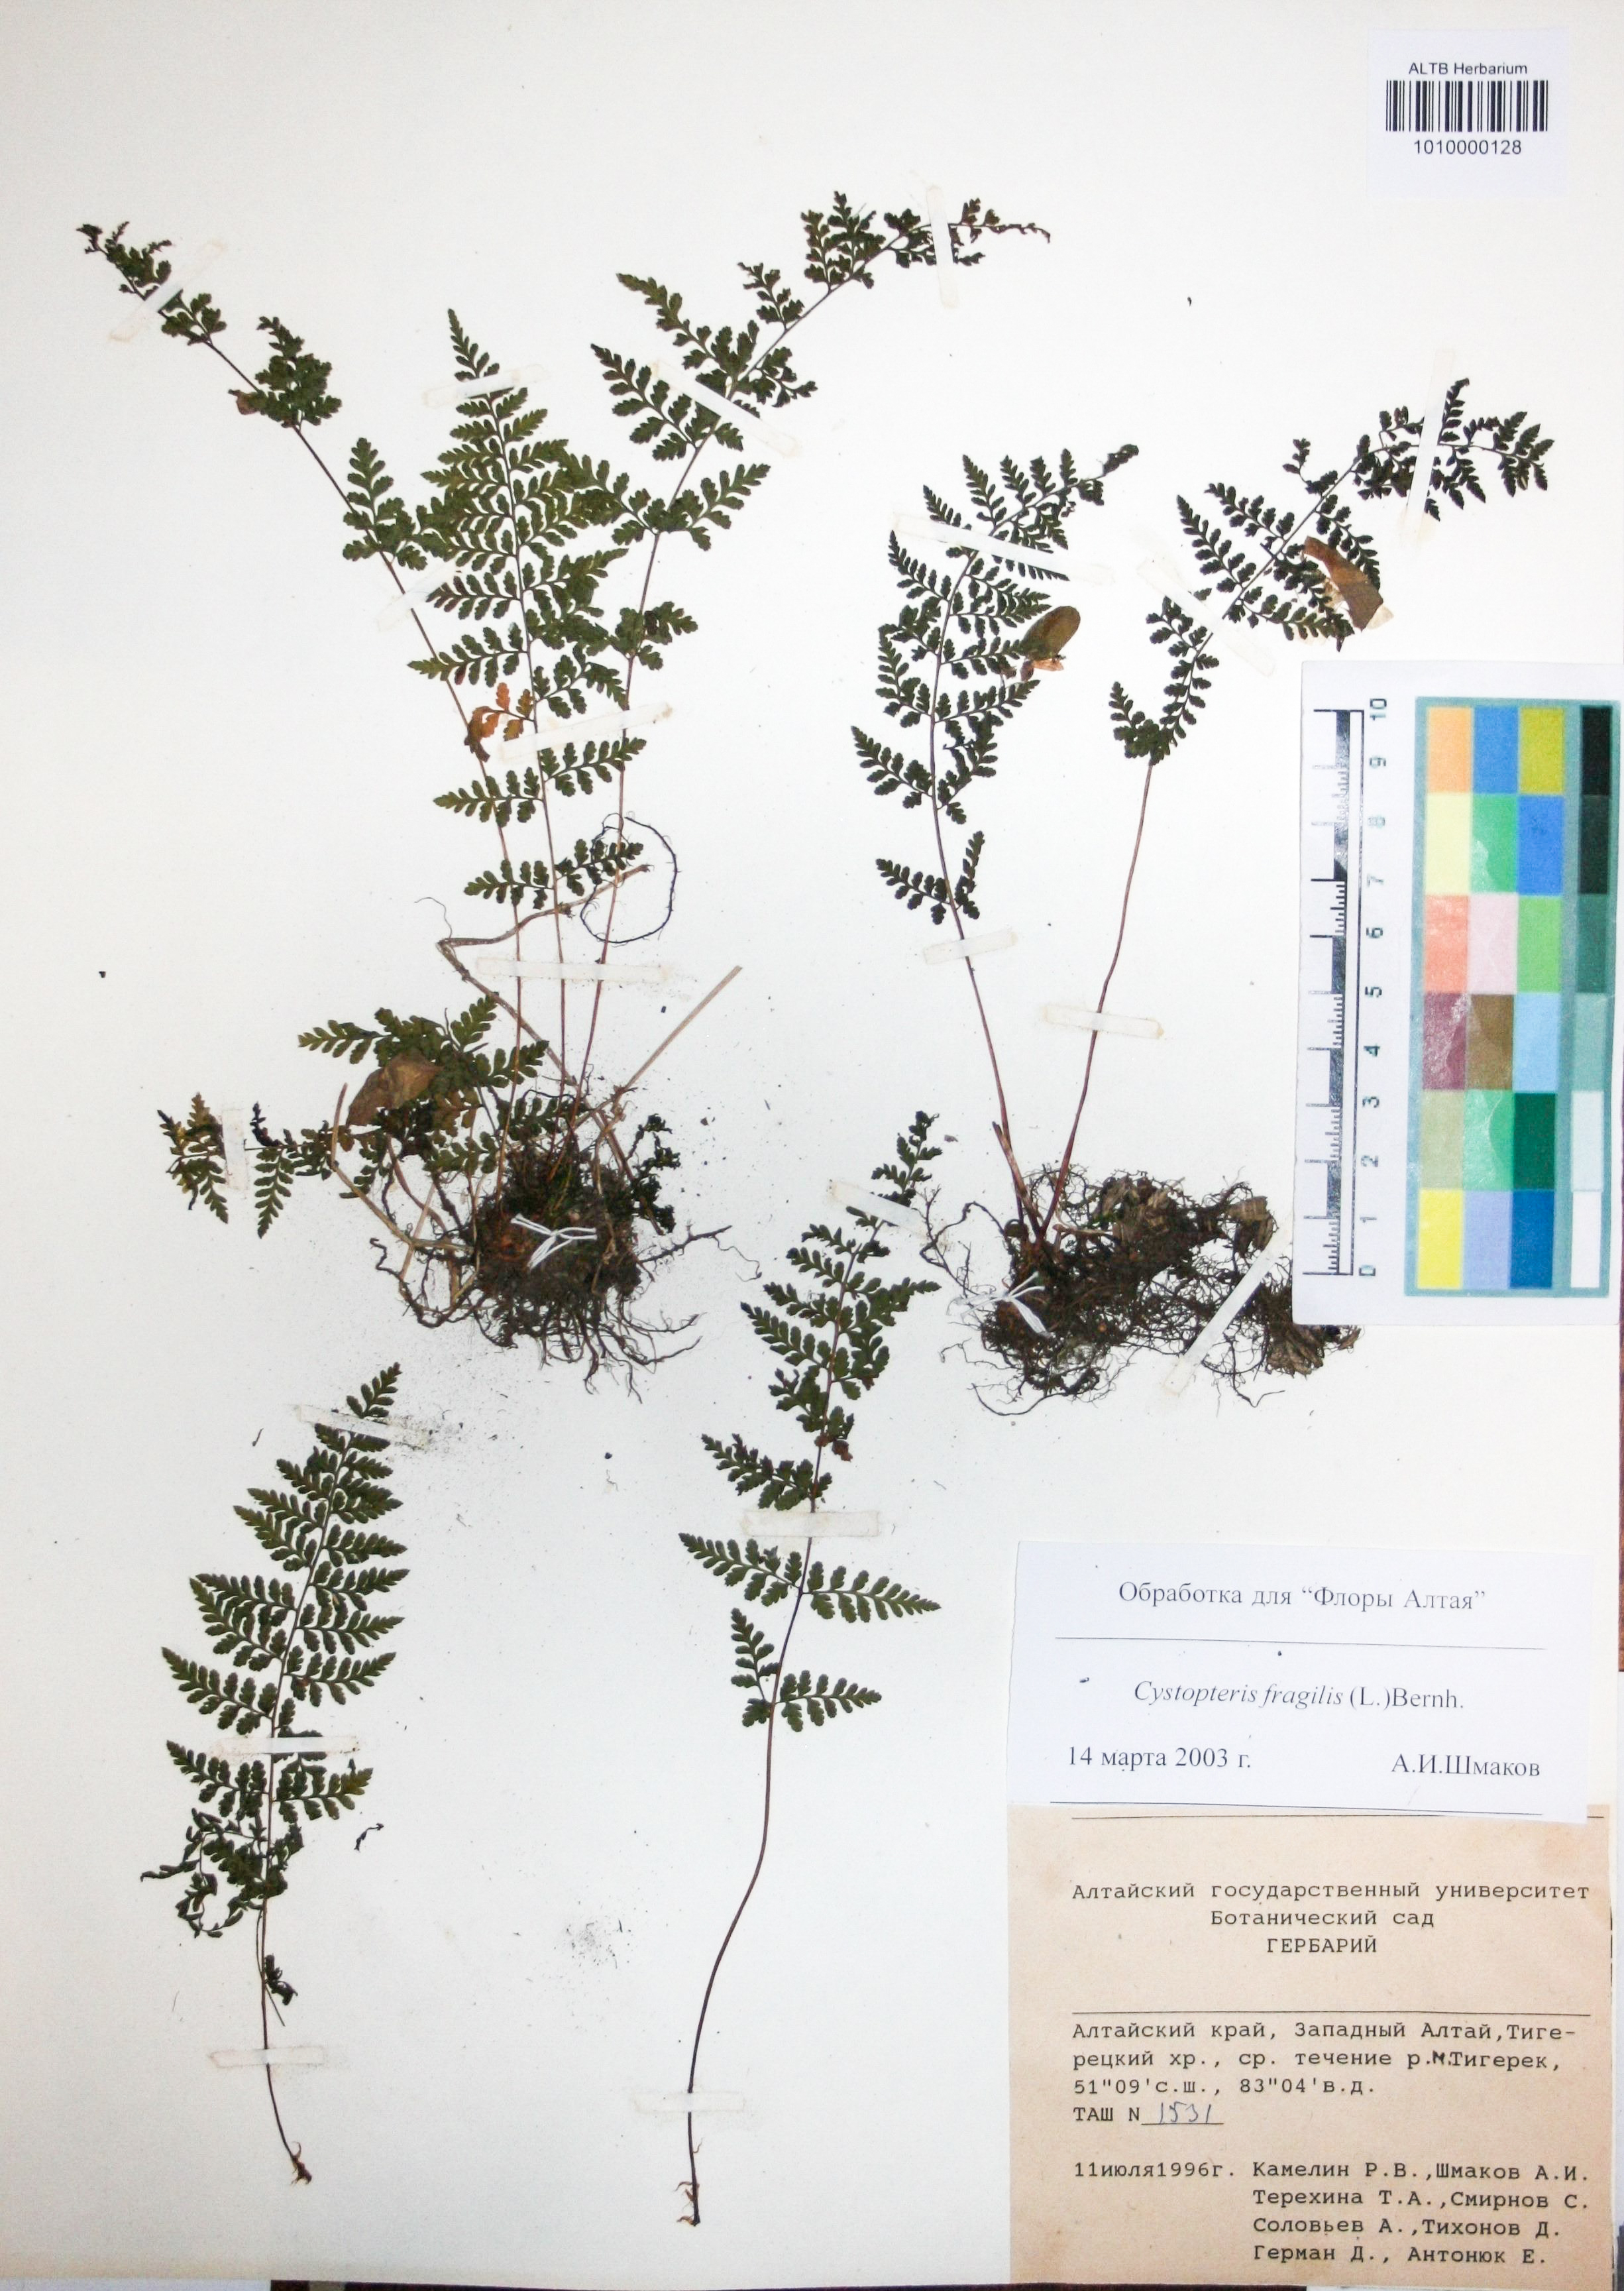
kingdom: Plantae
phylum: Tracheophyta
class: Polypodiopsida
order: Polypodiales
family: Cystopteridaceae
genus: Cystopteris
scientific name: Cystopteris fragilis
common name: Brittle bladder fern
